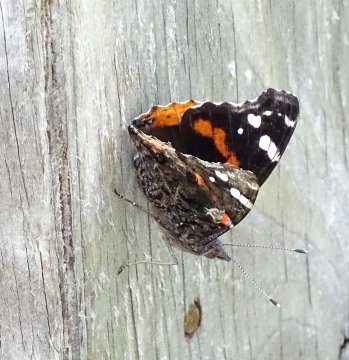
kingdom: Animalia
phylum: Arthropoda
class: Insecta
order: Lepidoptera
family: Nymphalidae
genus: Vanessa
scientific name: Vanessa atalanta
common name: Red Admiral
